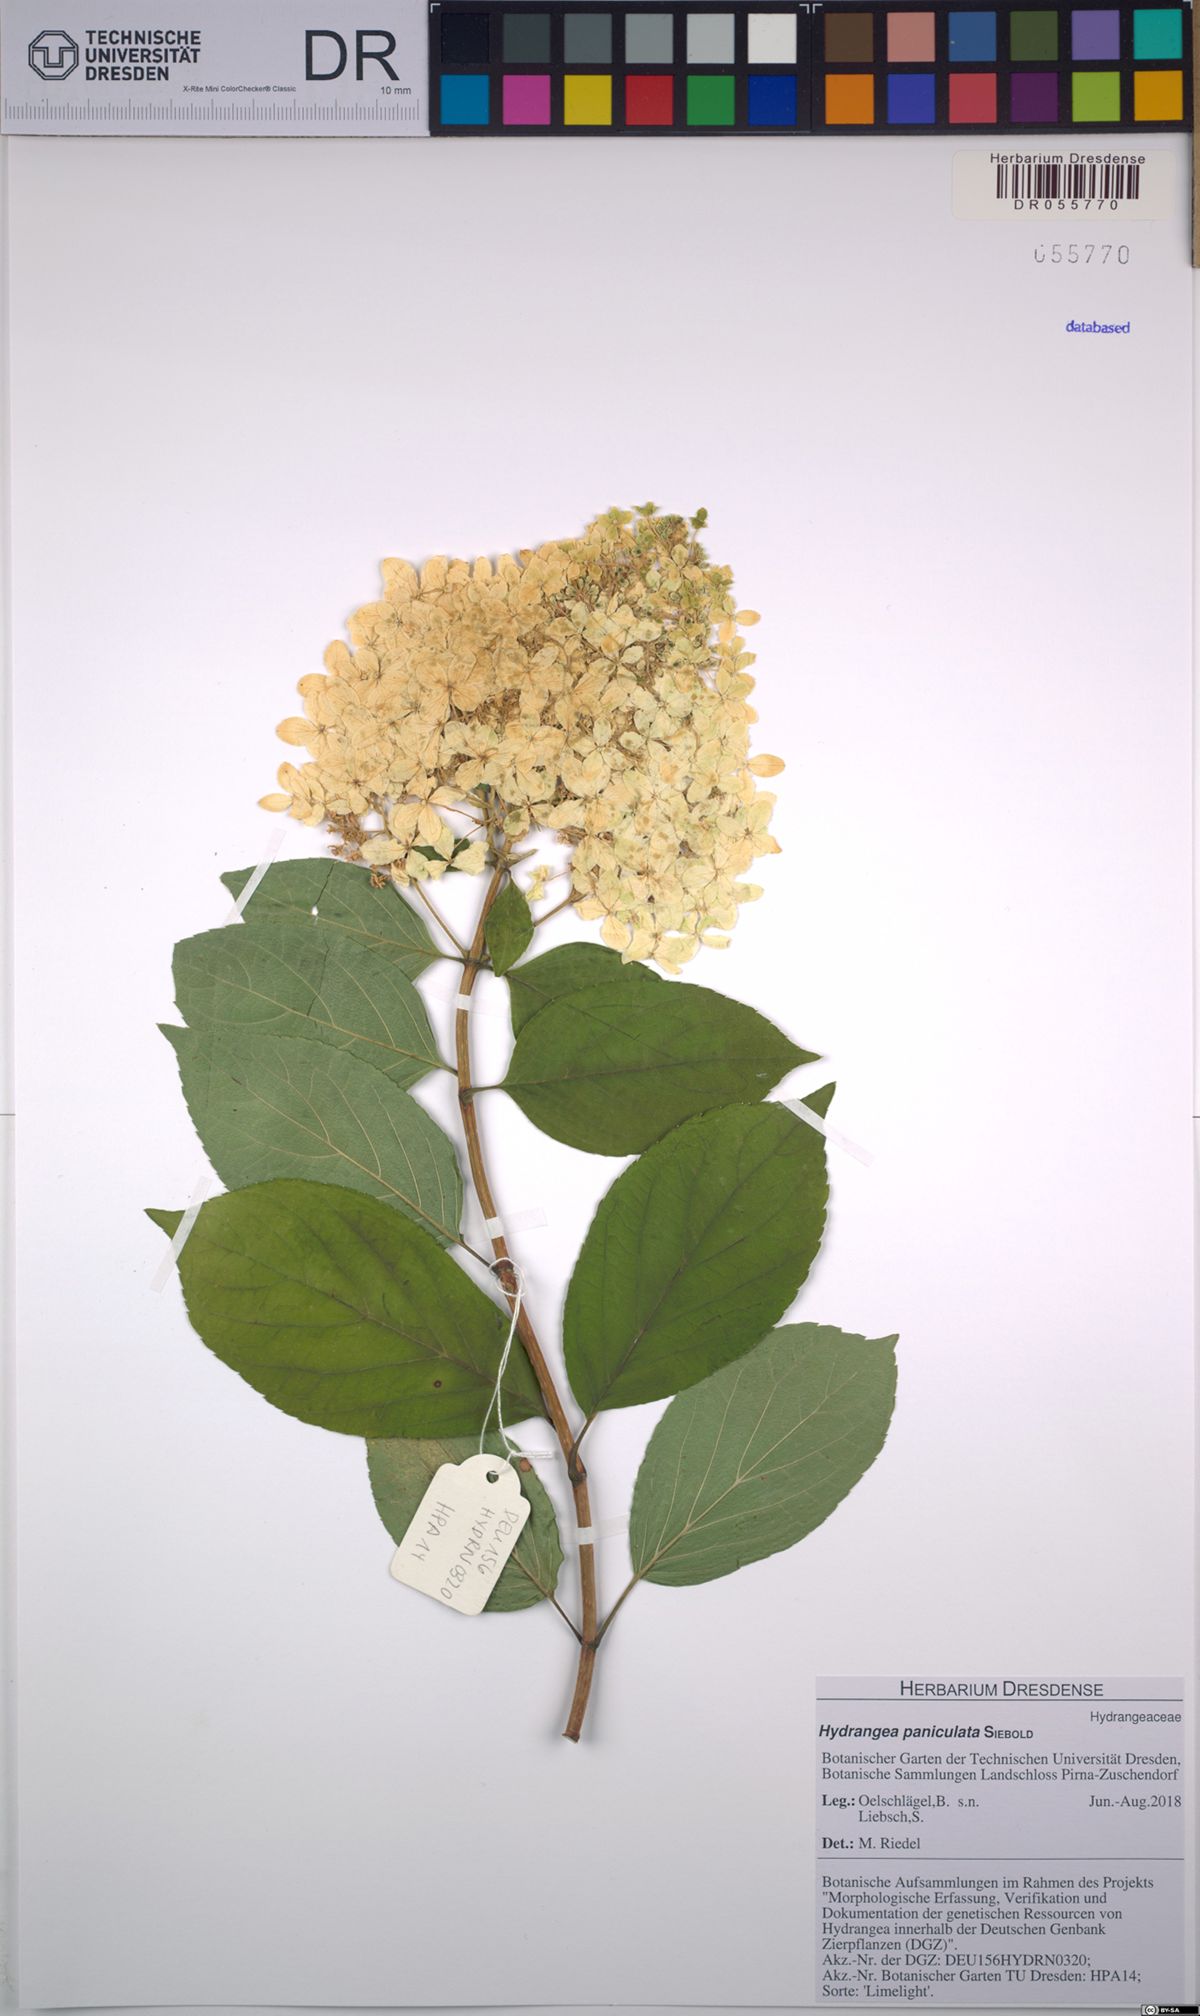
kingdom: Plantae
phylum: Tracheophyta
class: Magnoliopsida
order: Cornales
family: Hydrangeaceae
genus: Hydrangea
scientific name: Hydrangea paniculata
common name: Panicled hydrangea
